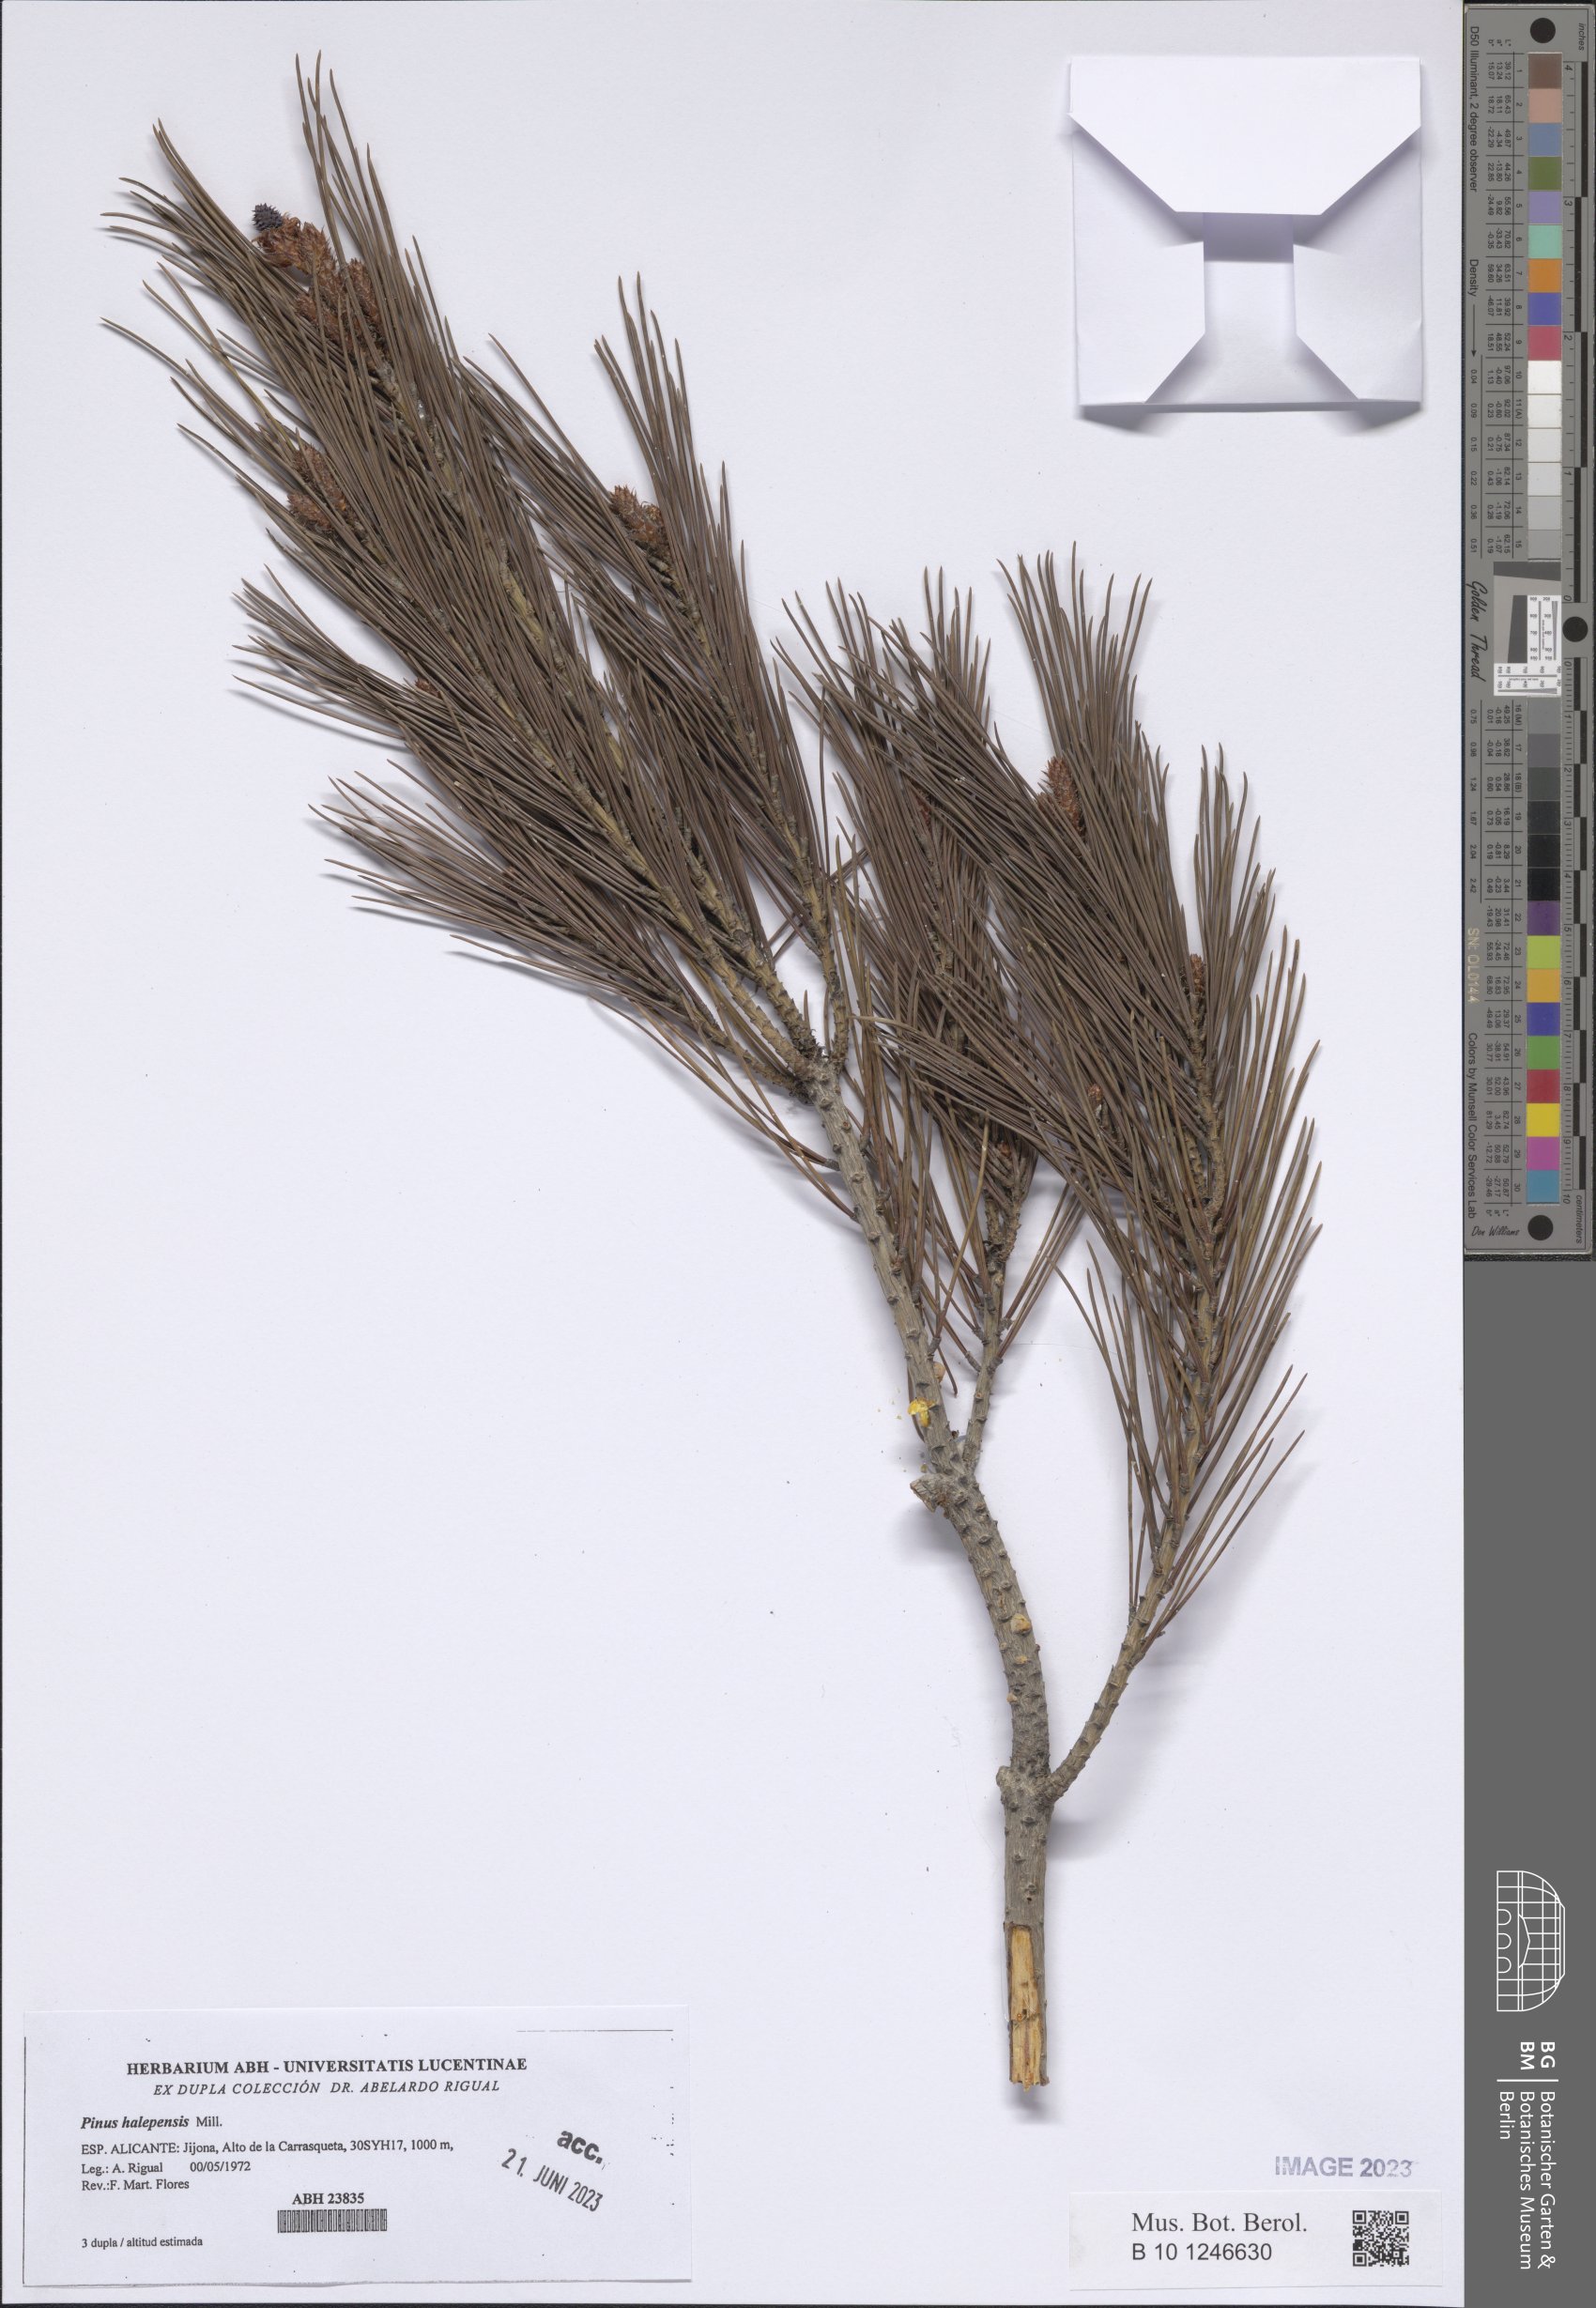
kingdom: Plantae
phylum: Tracheophyta
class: Pinopsida
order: Pinales
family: Pinaceae
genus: Pinus
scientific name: Pinus halepensis
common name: Aleppo pine
